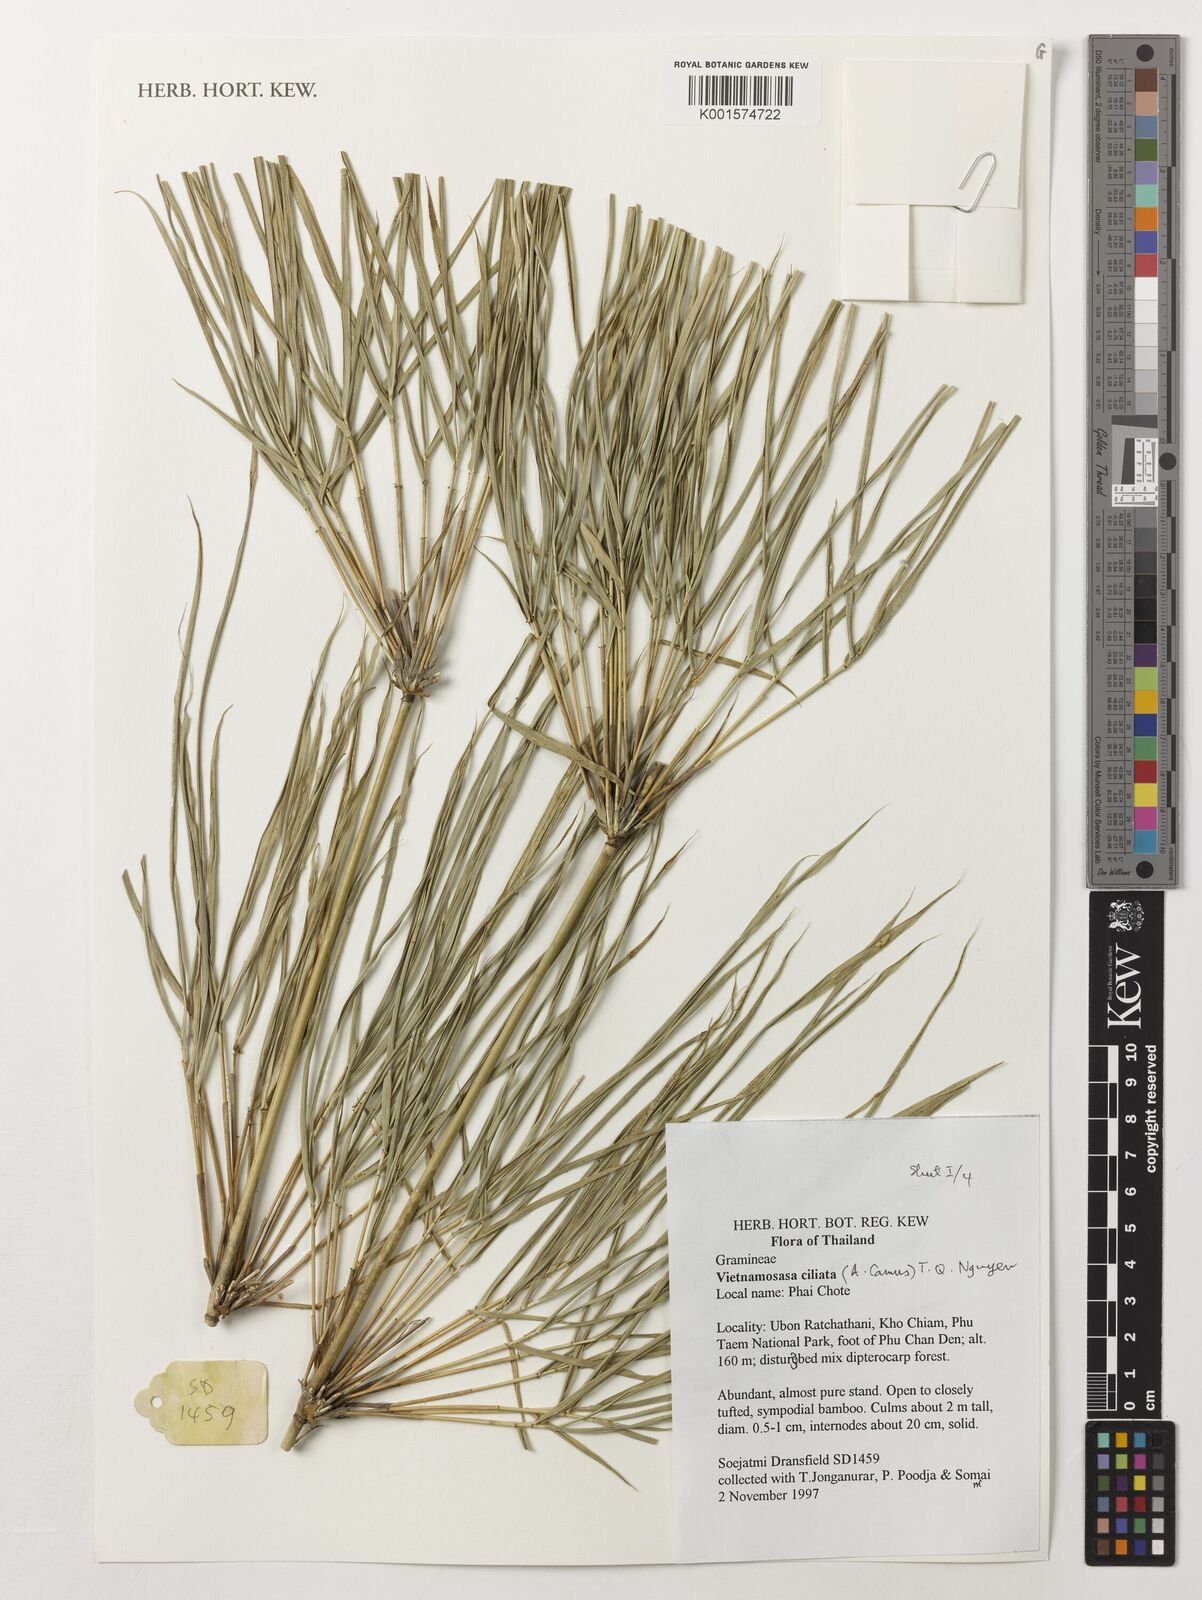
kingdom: Plantae
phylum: Tracheophyta
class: Liliopsida
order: Poales
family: Poaceae
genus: Vietnamosasa
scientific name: Vietnamosasa ciliata
